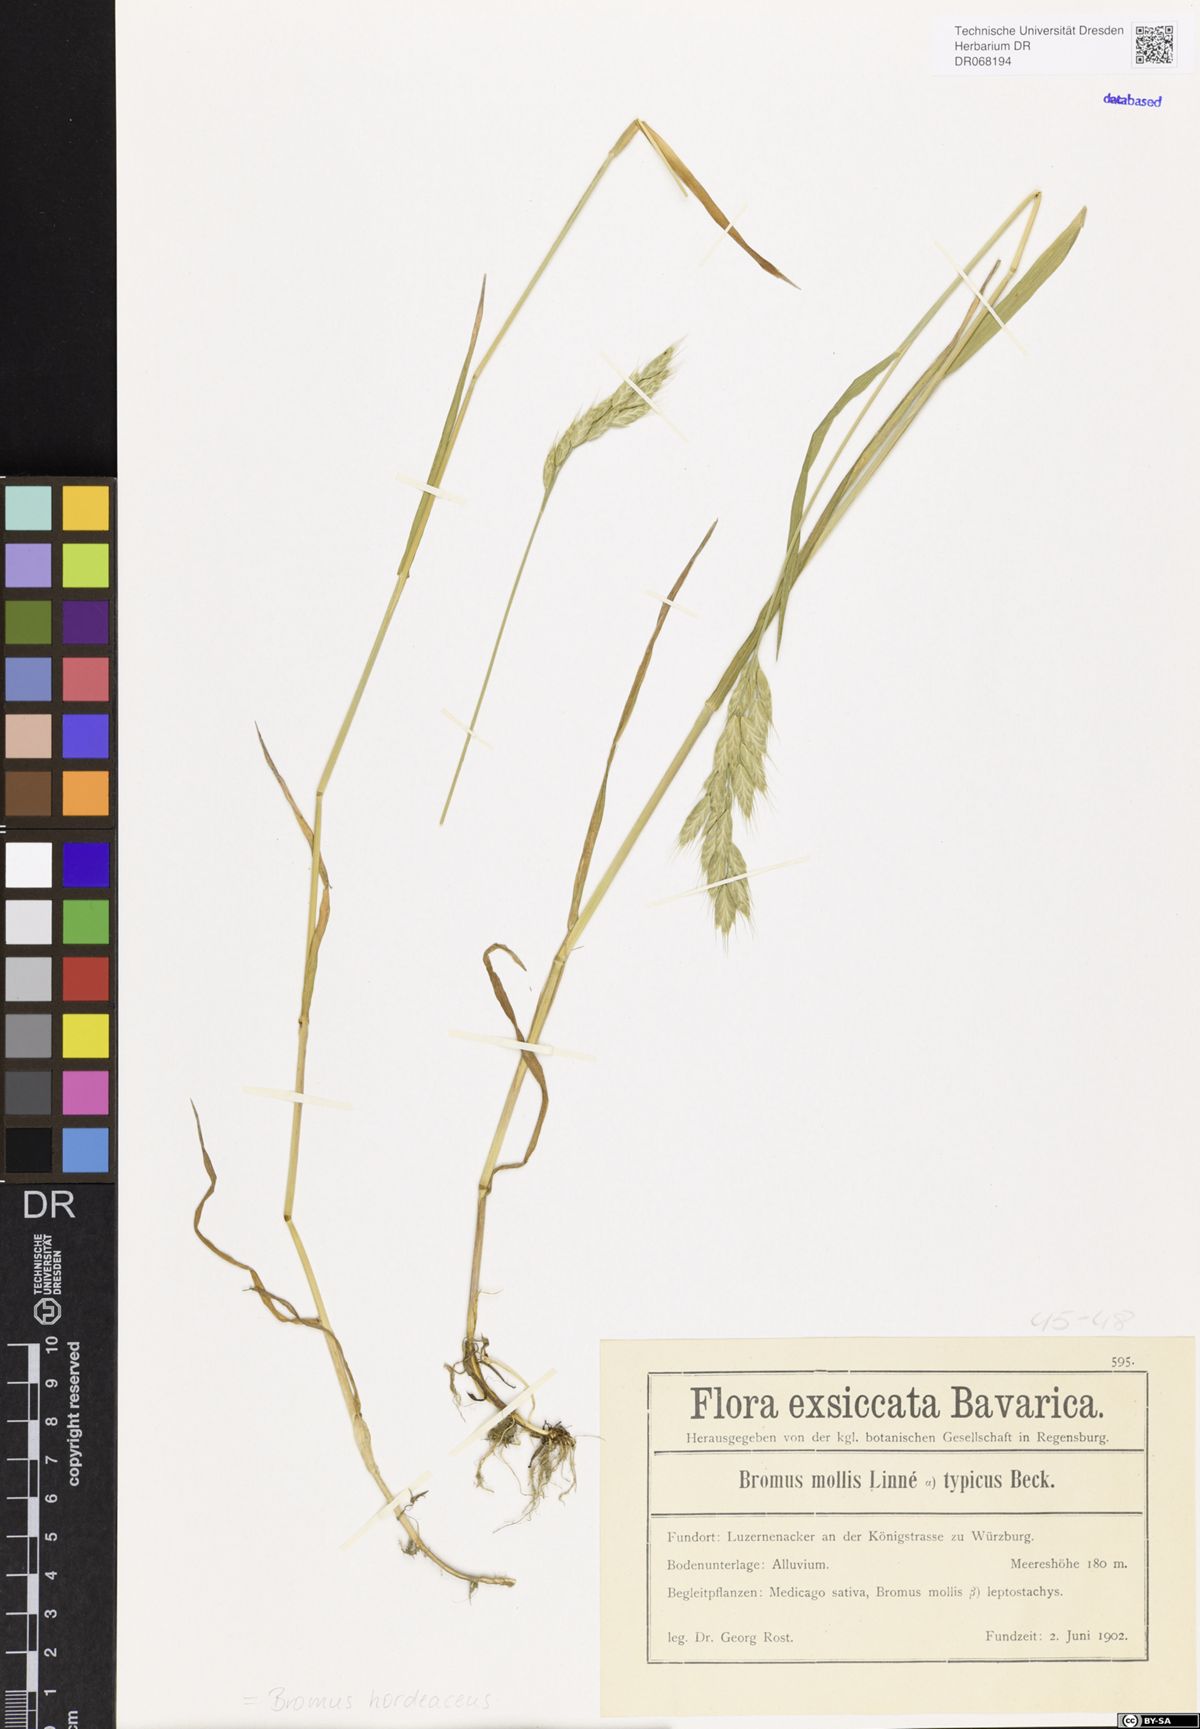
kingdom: Plantae
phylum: Tracheophyta
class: Liliopsida
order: Poales
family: Poaceae
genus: Bromus
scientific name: Bromus hordeaceus
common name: Soft brome
